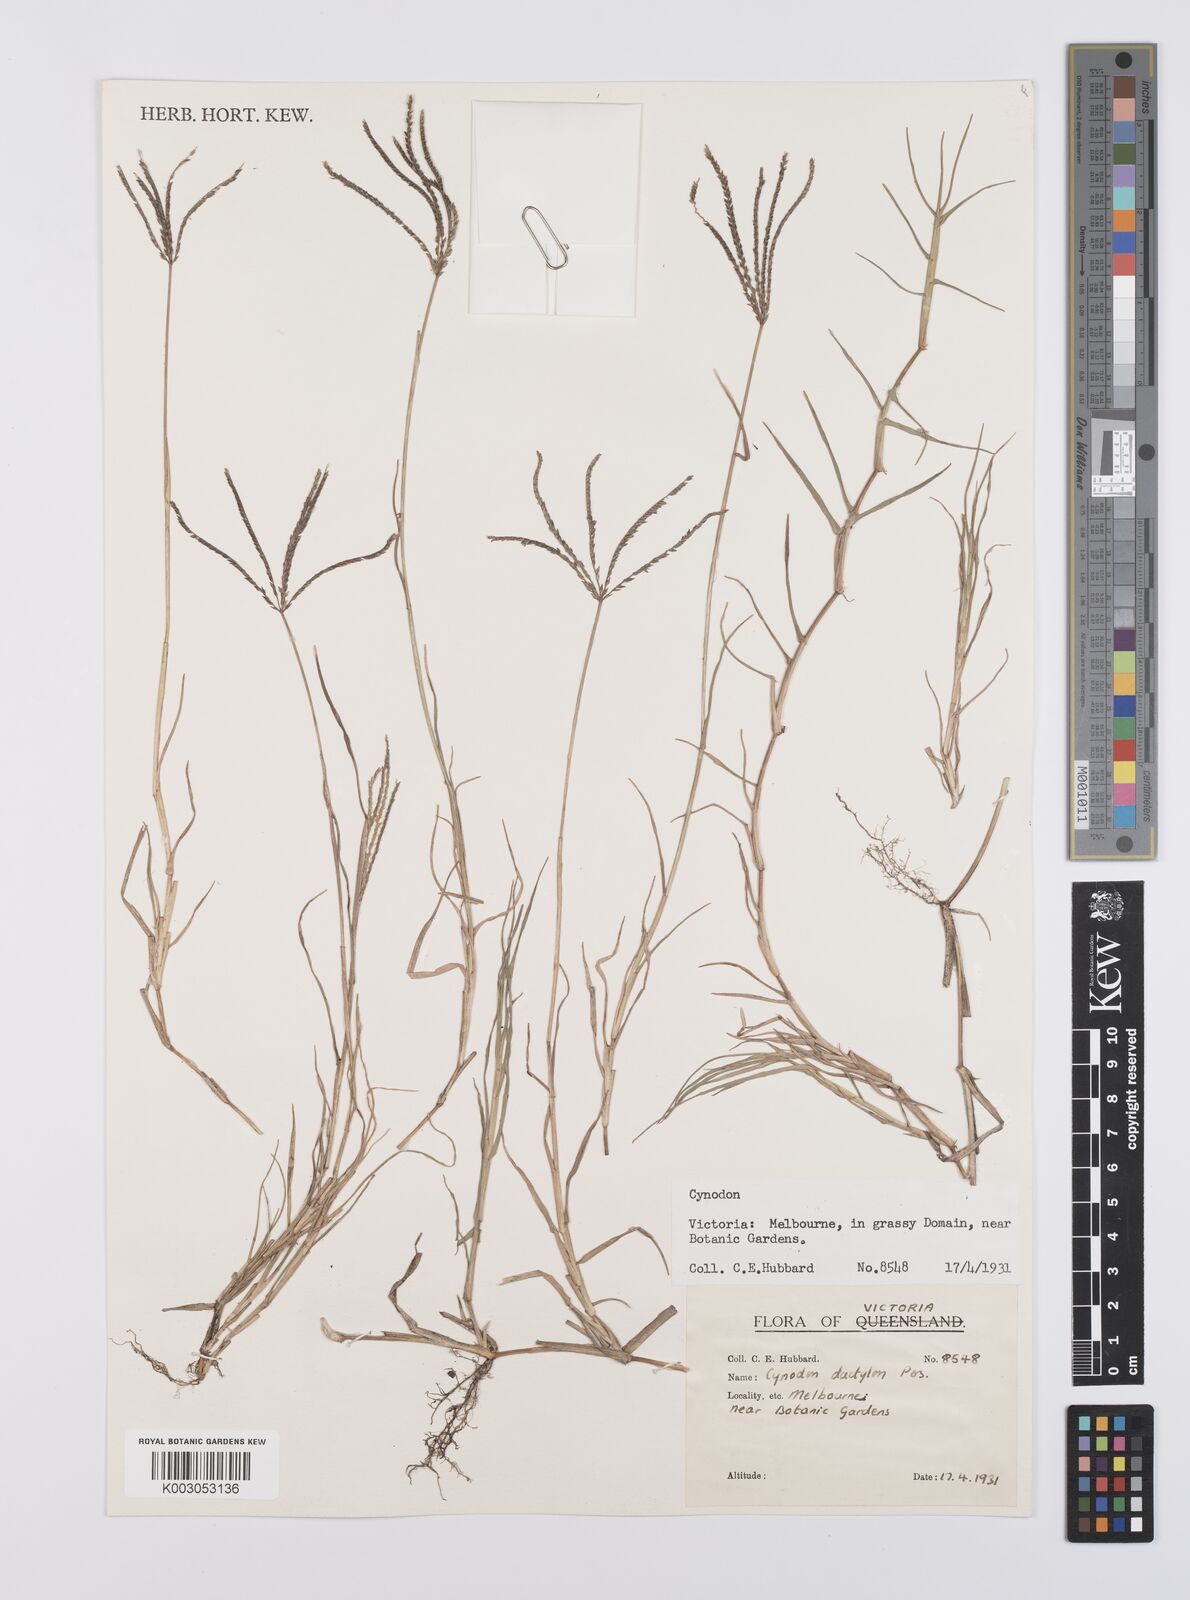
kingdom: Plantae
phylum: Tracheophyta
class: Liliopsida
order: Poales
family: Poaceae
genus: Cynodon
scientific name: Cynodon dactylon
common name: Bermuda grass
